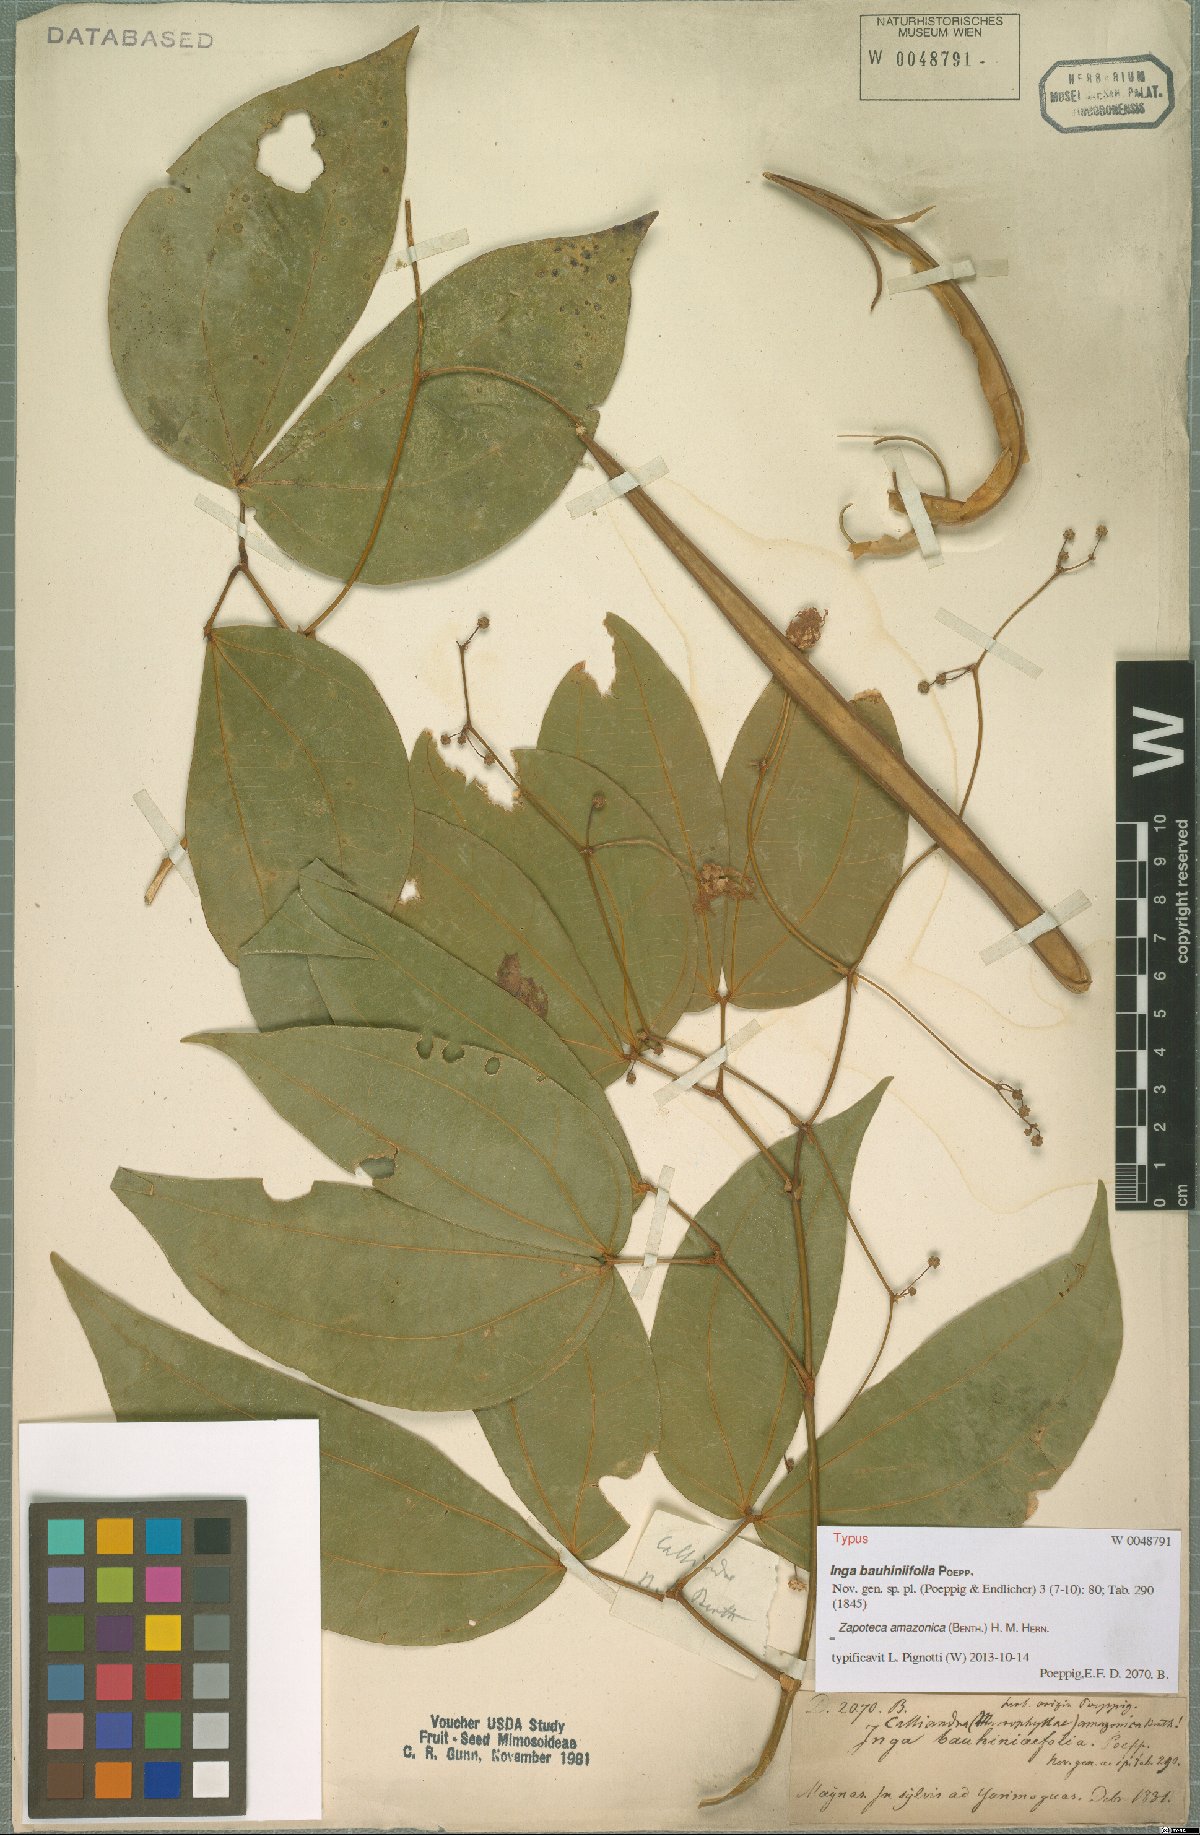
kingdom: Plantae
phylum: Tracheophyta
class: Magnoliopsida
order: Fabales
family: Fabaceae
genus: Zapoteca
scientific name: Zapoteca amazonica
